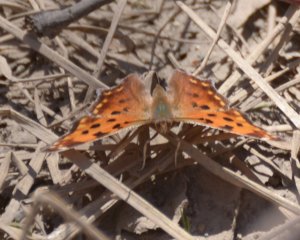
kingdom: Animalia
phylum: Arthropoda
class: Insecta
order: Lepidoptera
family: Nymphalidae
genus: Polygonia
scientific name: Polygonia faunus
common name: Green Comma
